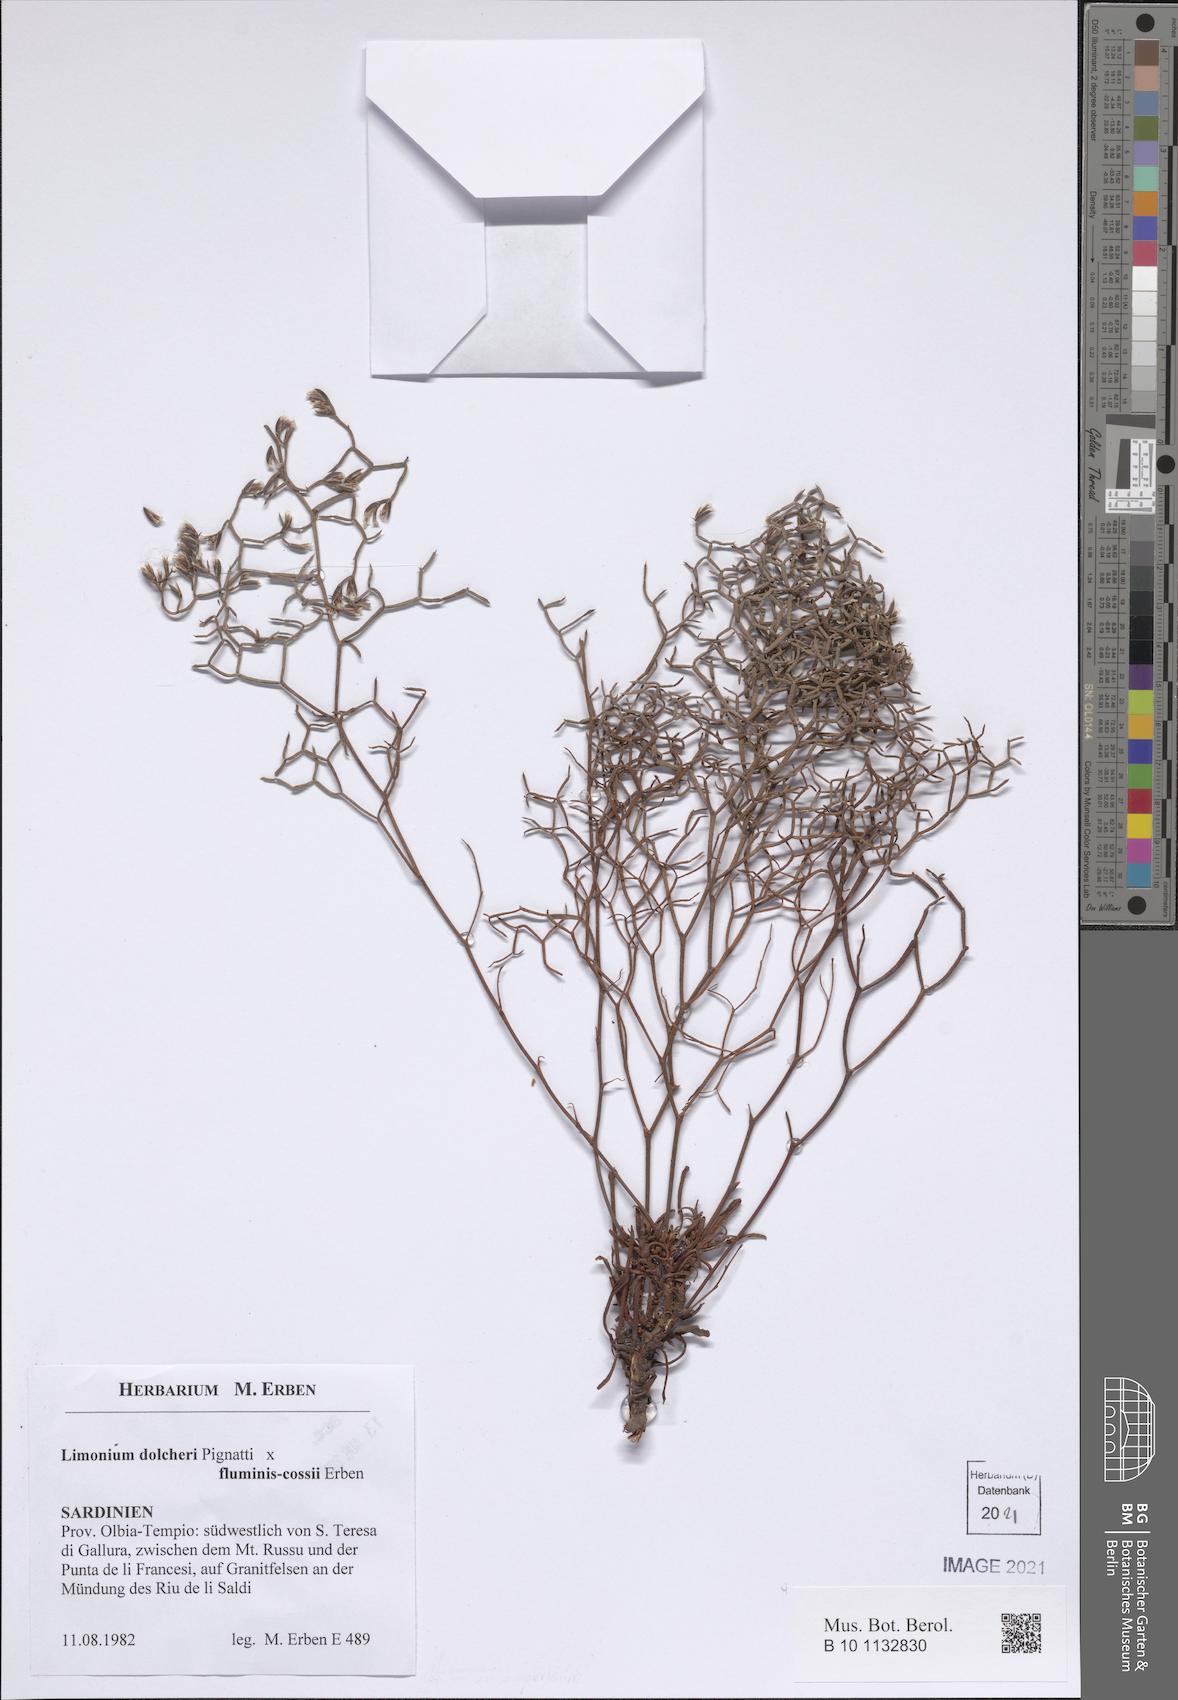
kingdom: Plantae
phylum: Tracheophyta
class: Magnoliopsida
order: Caryophyllales
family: Plumbaginaceae
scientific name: Plumbaginaceae
